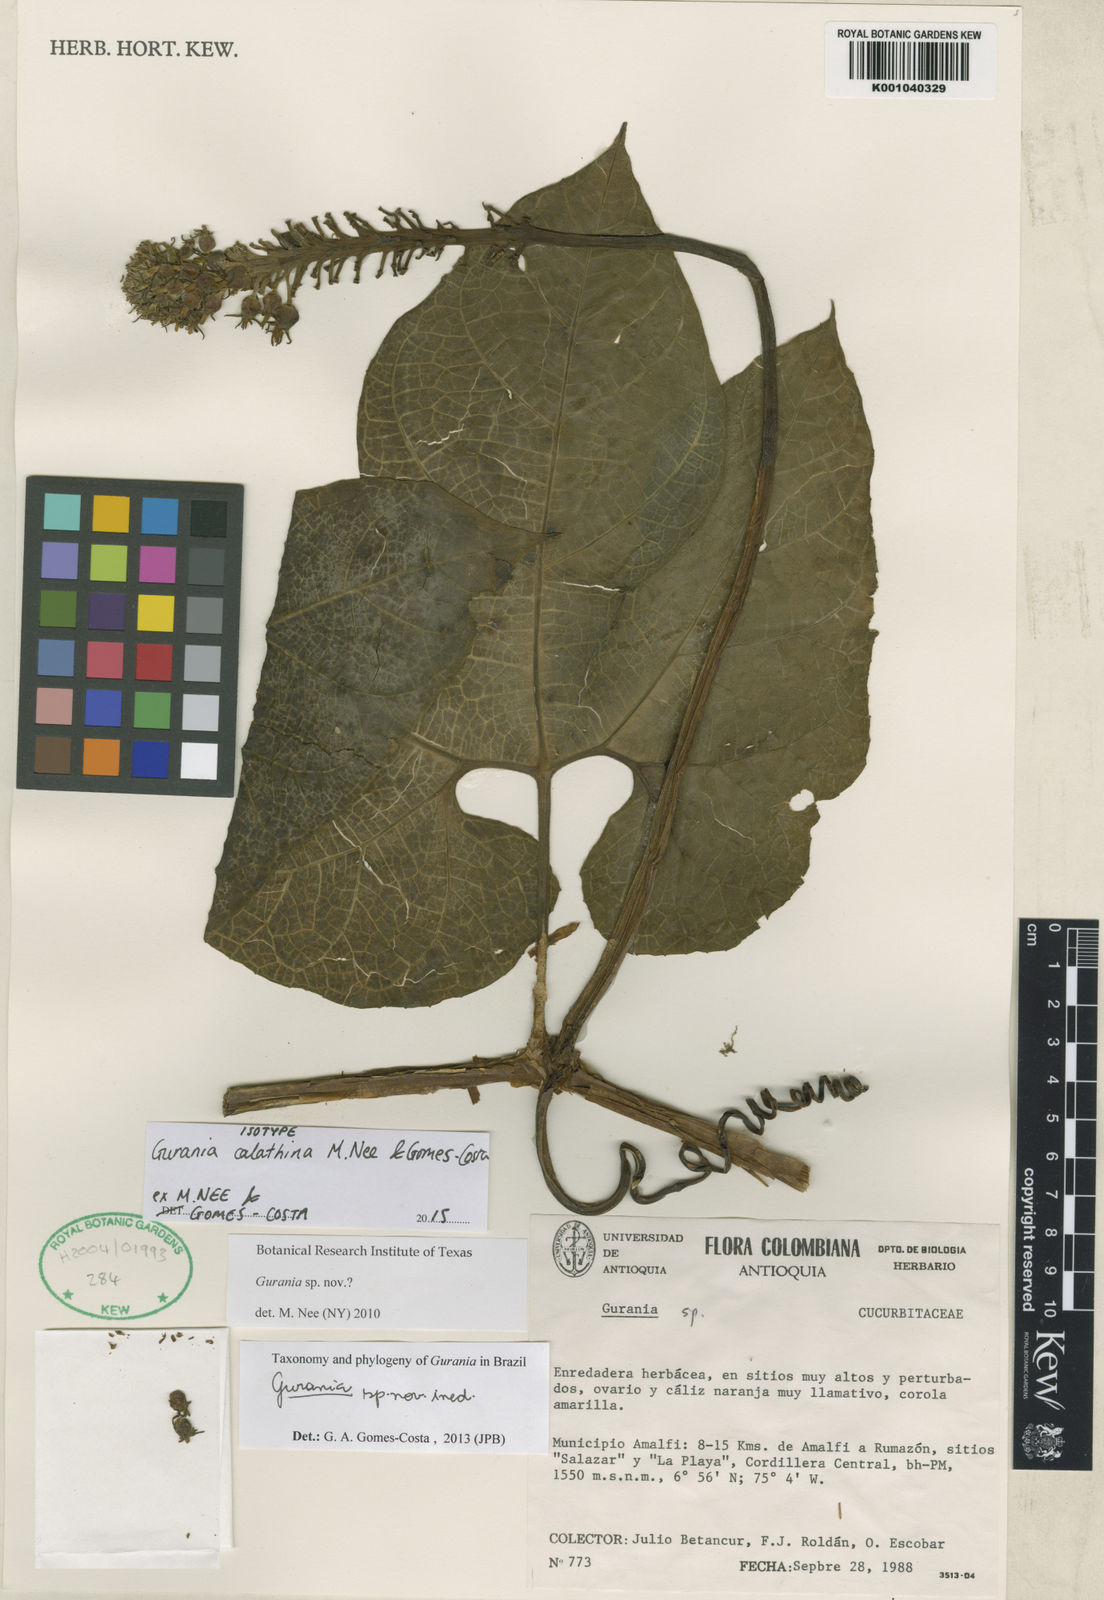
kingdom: Plantae
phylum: Tracheophyta
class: Magnoliopsida
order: Cucurbitales
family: Cucurbitaceae
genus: Gurania
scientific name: Gurania calathina
